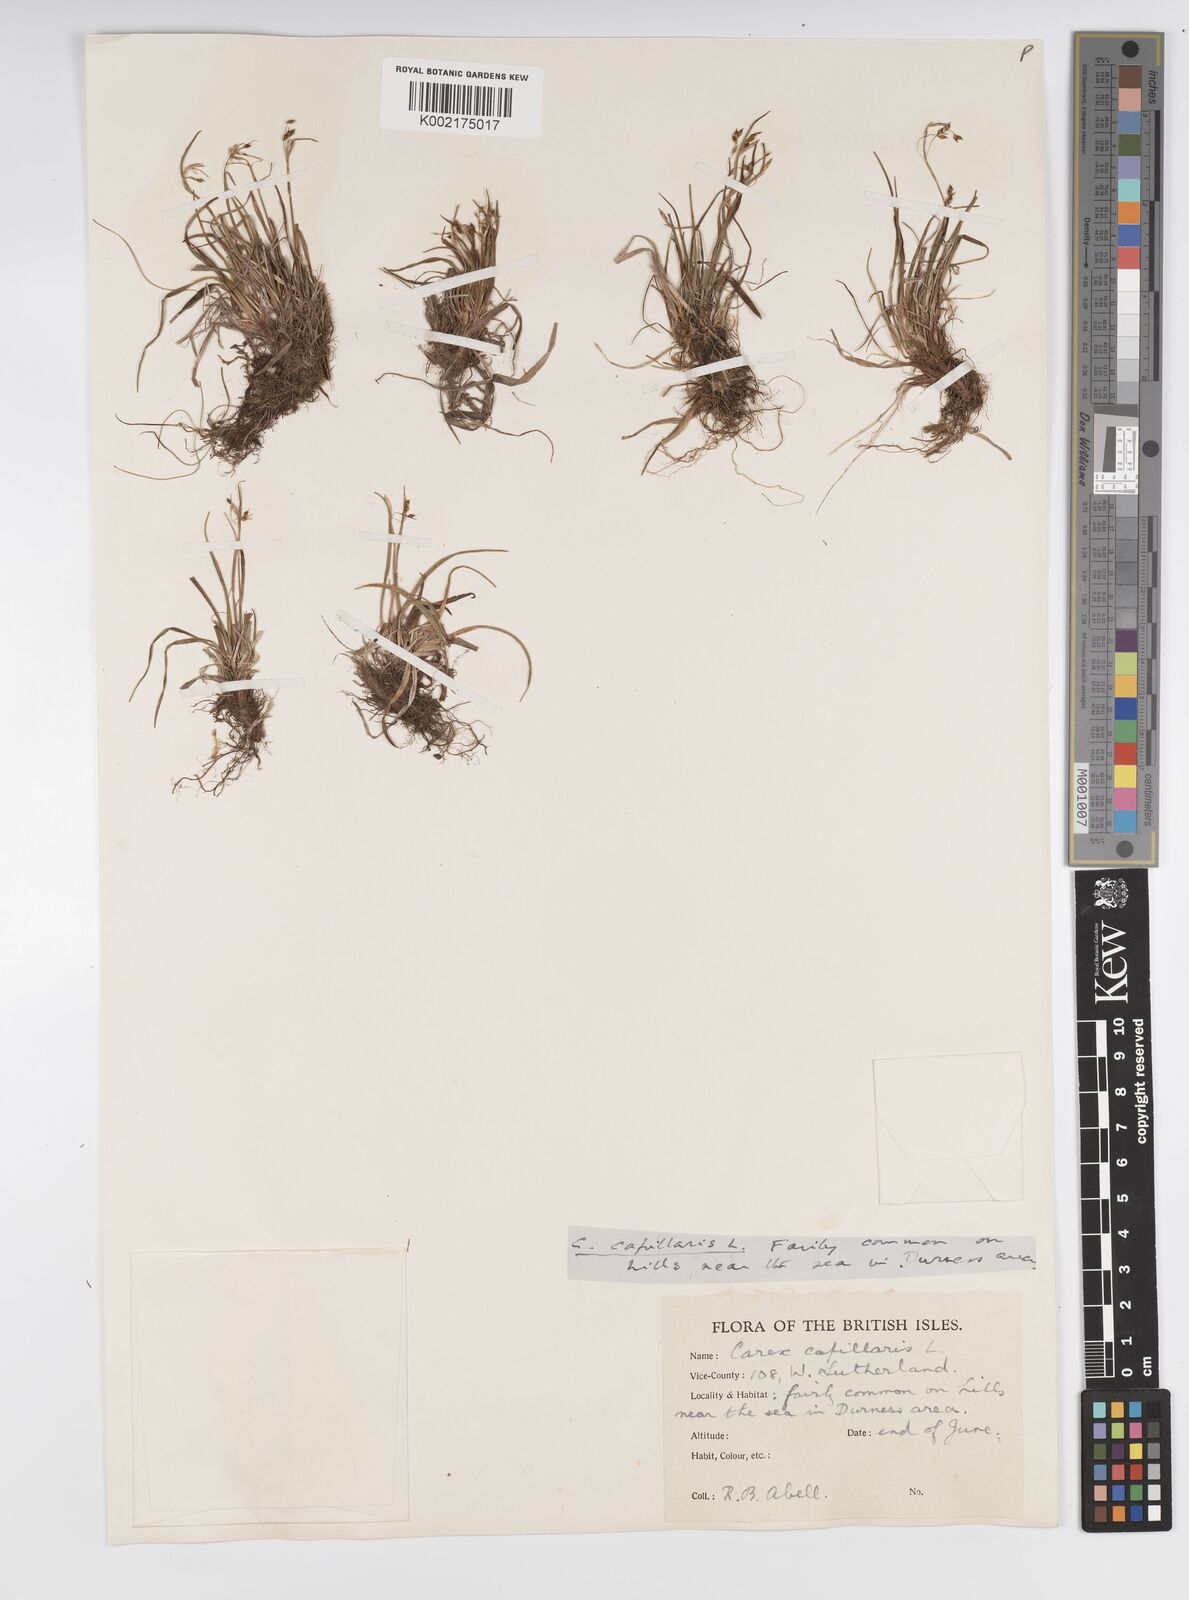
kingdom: Plantae
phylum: Tracheophyta
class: Liliopsida
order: Poales
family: Cyperaceae
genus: Carex
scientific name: Carex capillaris
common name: Hair sedge
